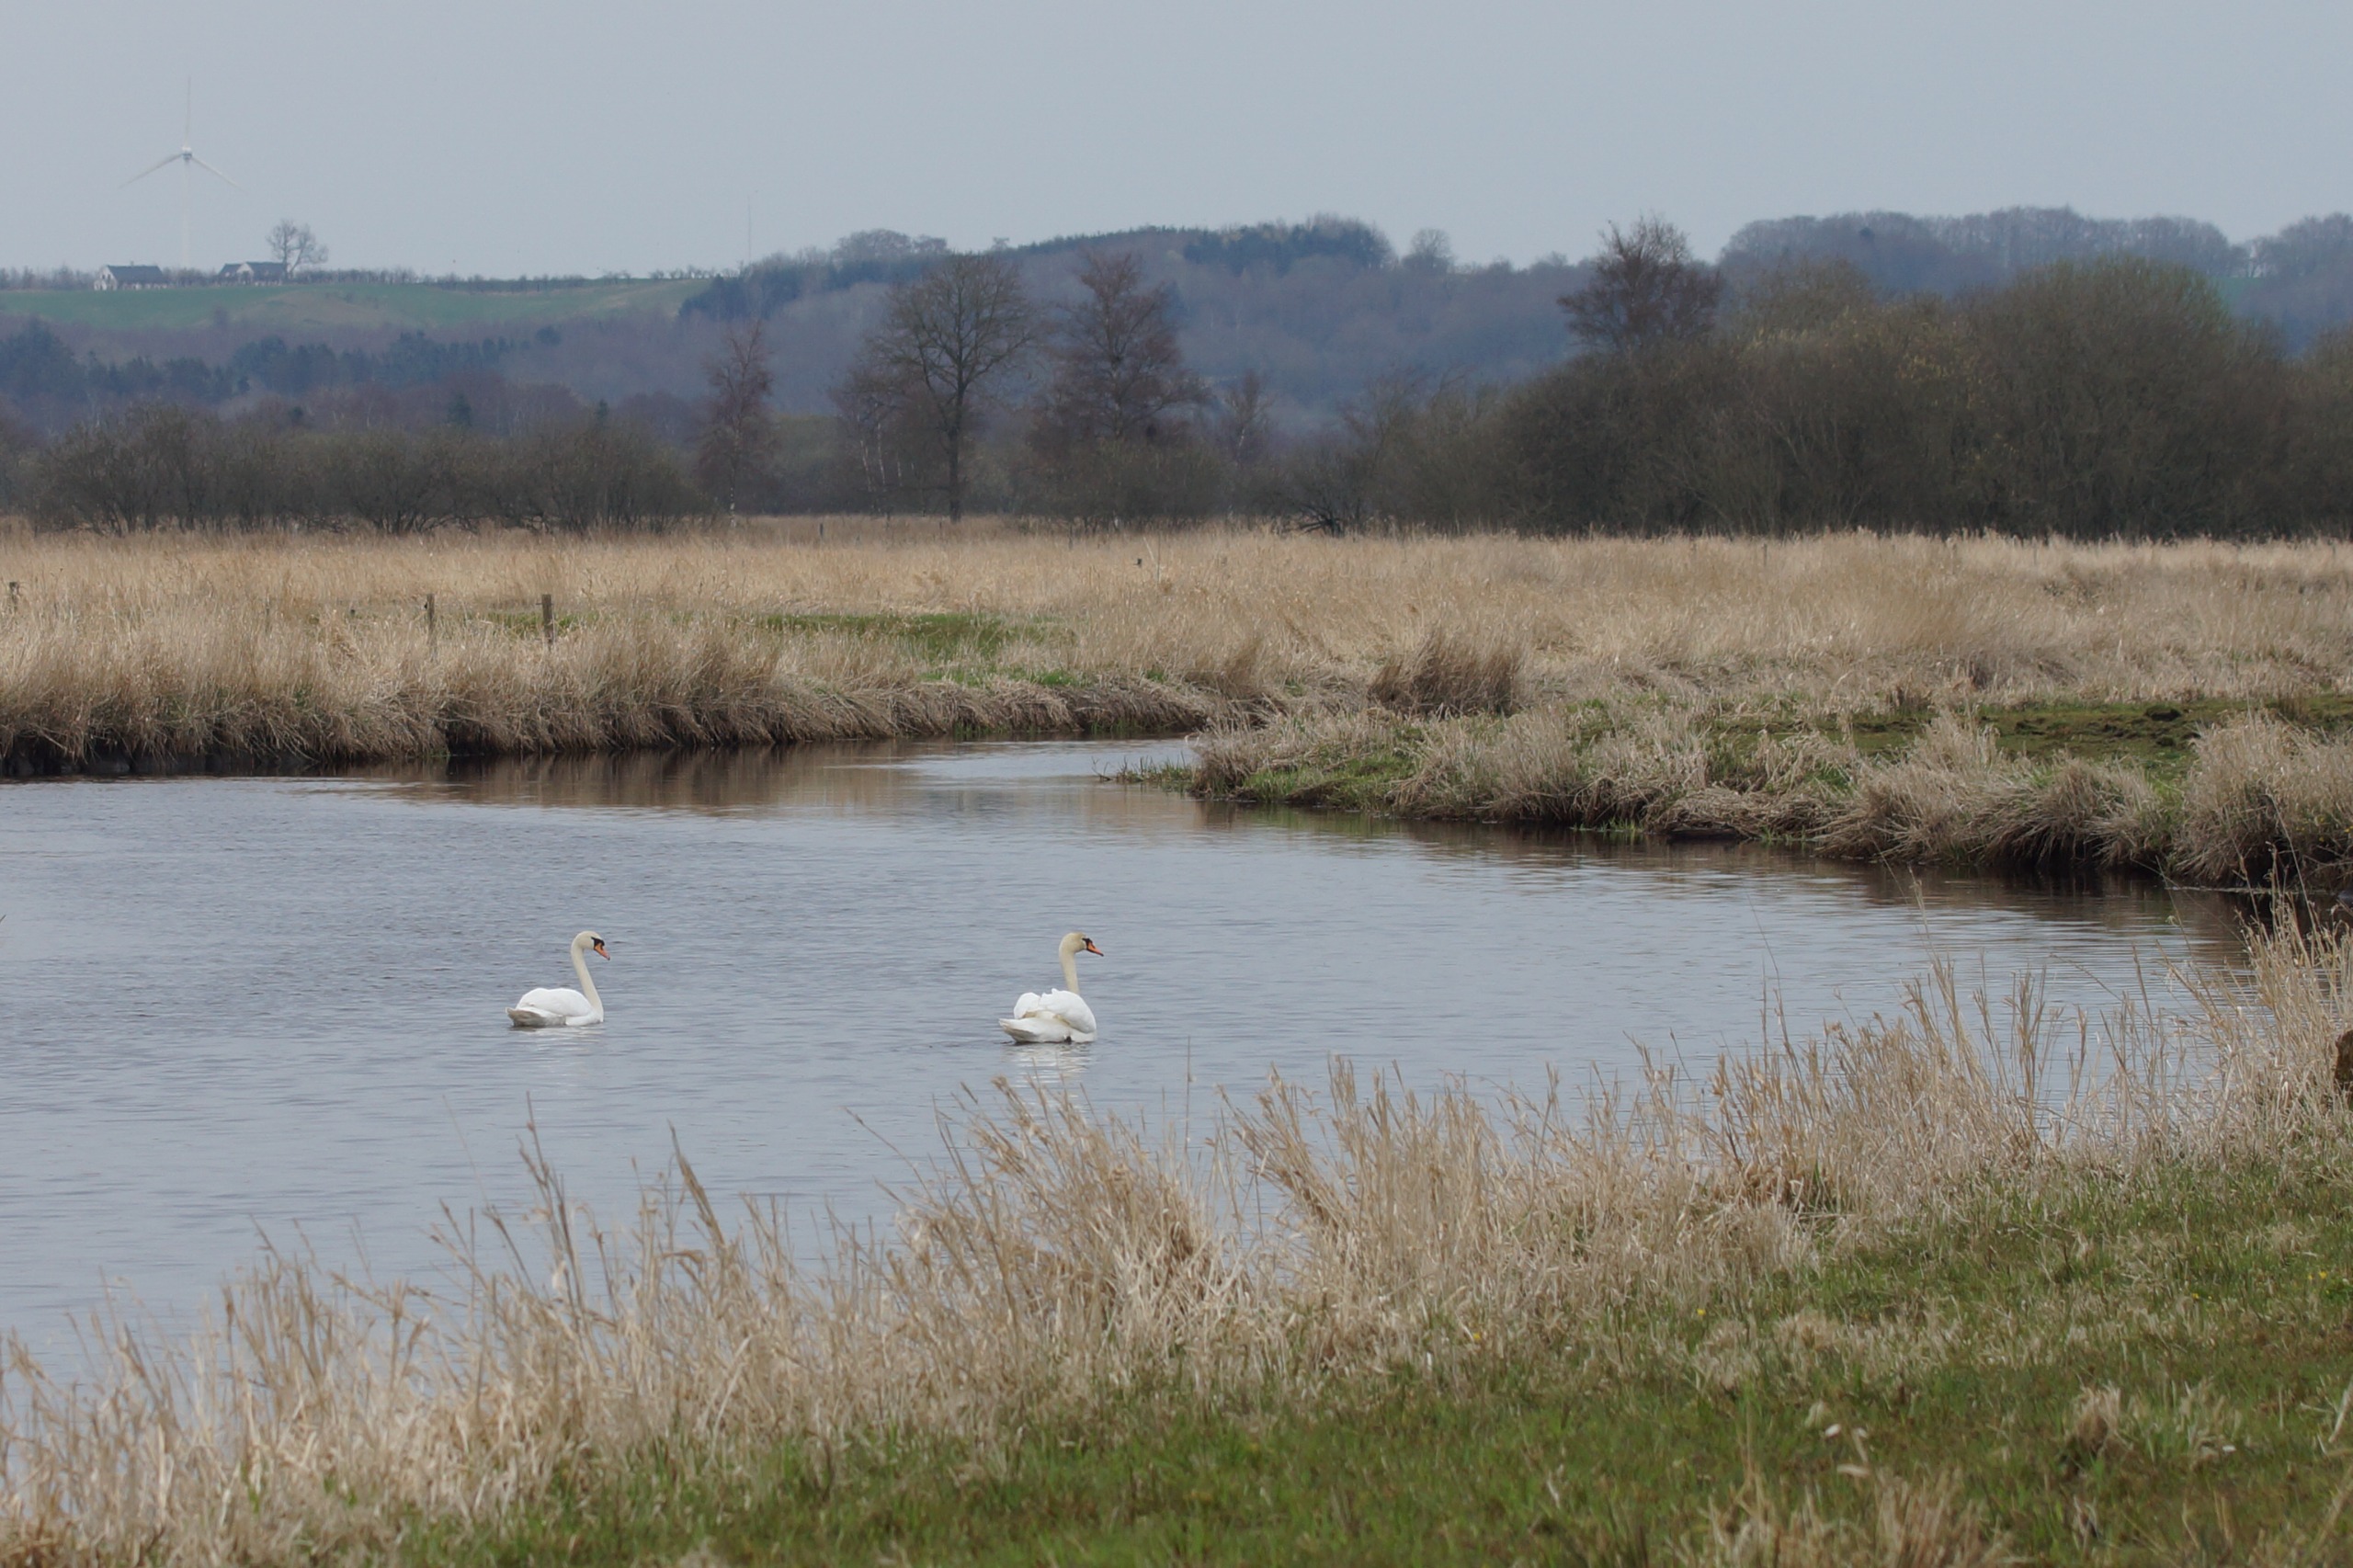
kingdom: Animalia
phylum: Chordata
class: Aves
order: Anseriformes
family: Anatidae
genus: Cygnus
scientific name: Cygnus olor
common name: Knopsvane
